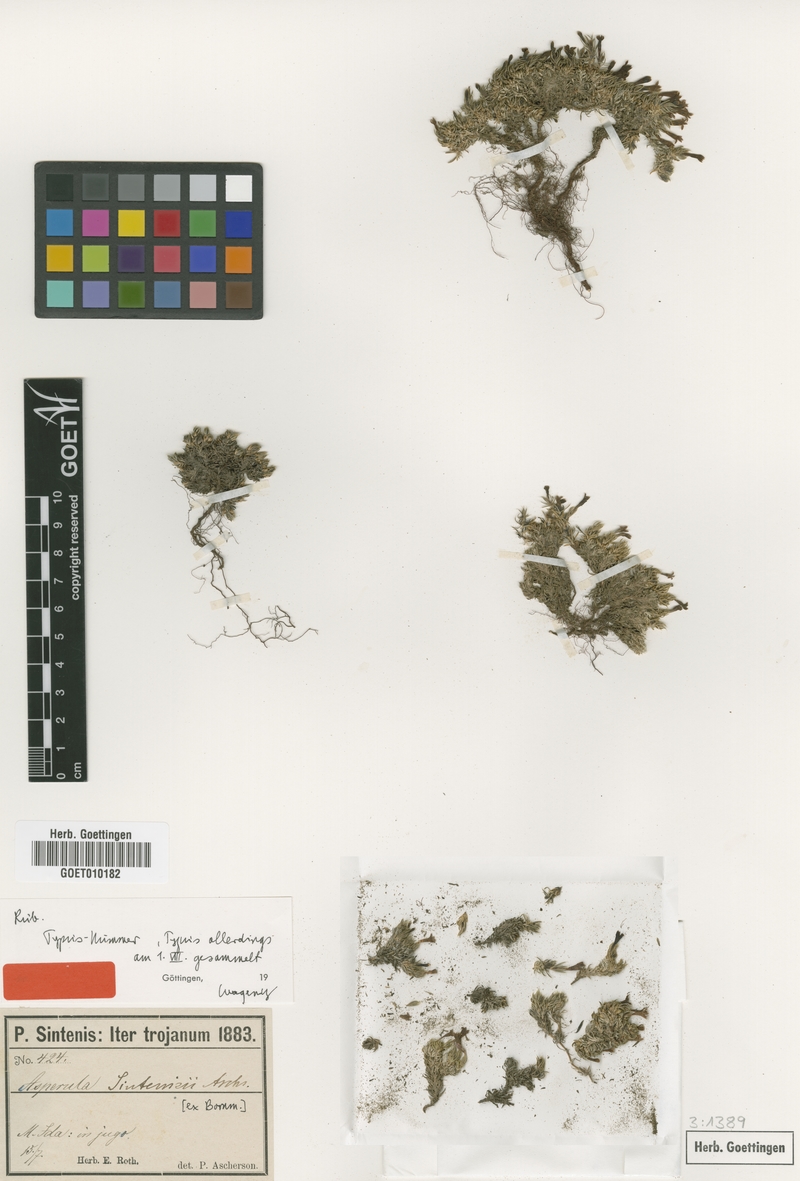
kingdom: Plantae
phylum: Tracheophyta
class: Magnoliopsida
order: Gentianales
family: Rubiaceae
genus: Cynanchica
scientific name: Cynanchica sintenisii
